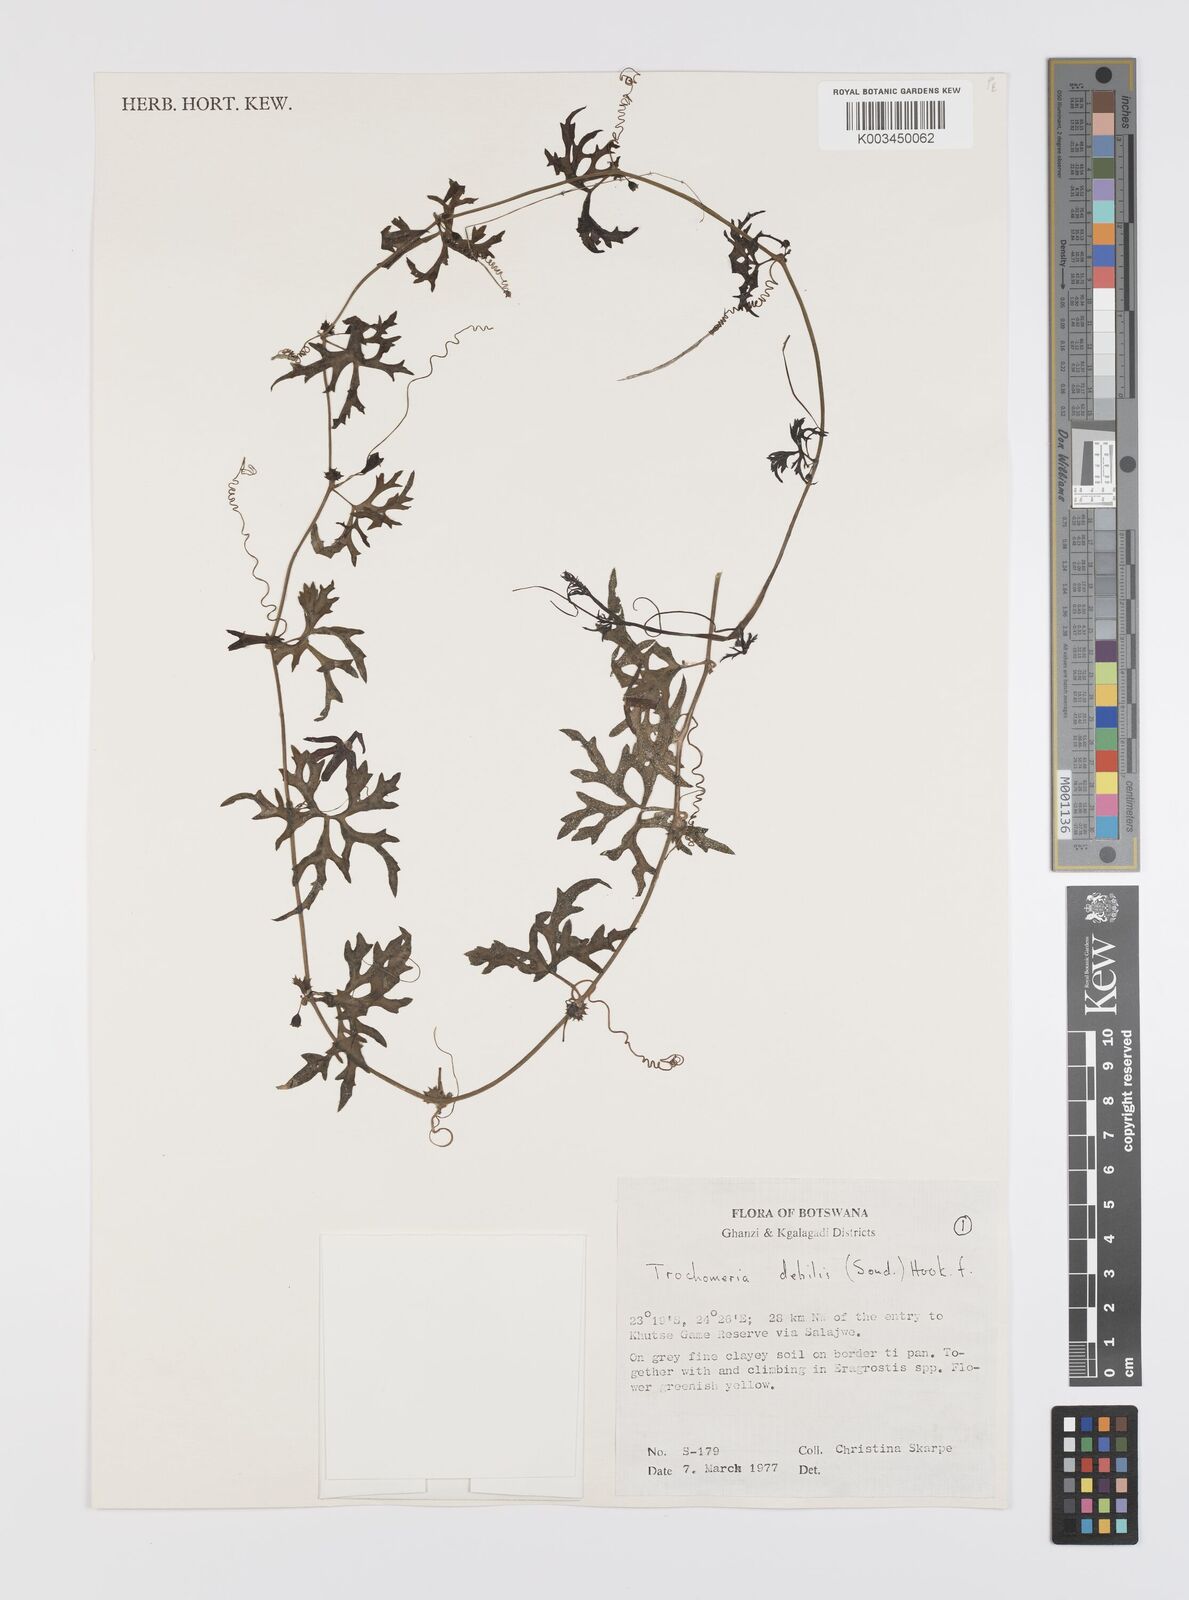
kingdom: Plantae
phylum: Tracheophyta
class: Magnoliopsida
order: Cucurbitales
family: Cucurbitaceae
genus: Trochomeria
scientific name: Trochomeria debilis
